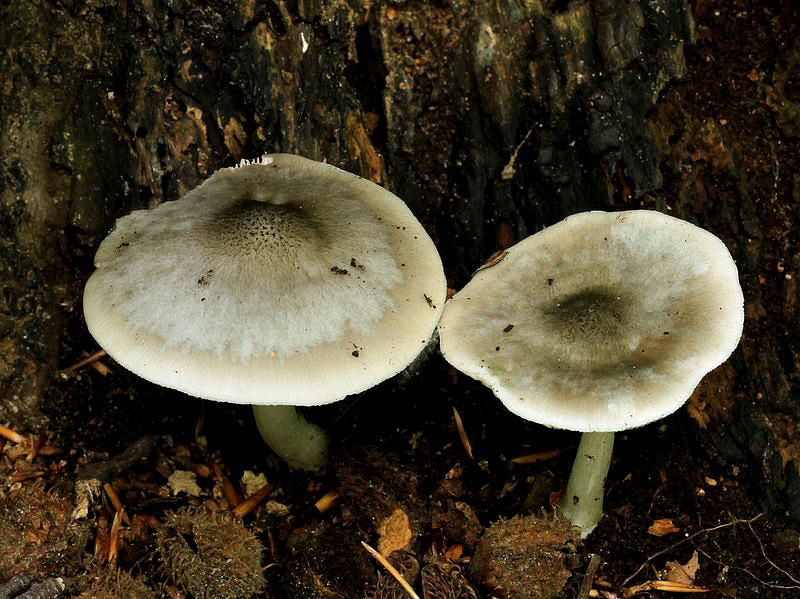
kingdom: Fungi
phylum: Basidiomycota
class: Agaricomycetes
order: Agaricales
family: Pluteaceae
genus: Pluteus
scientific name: Pluteus salicinus
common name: stiv skærmhat
